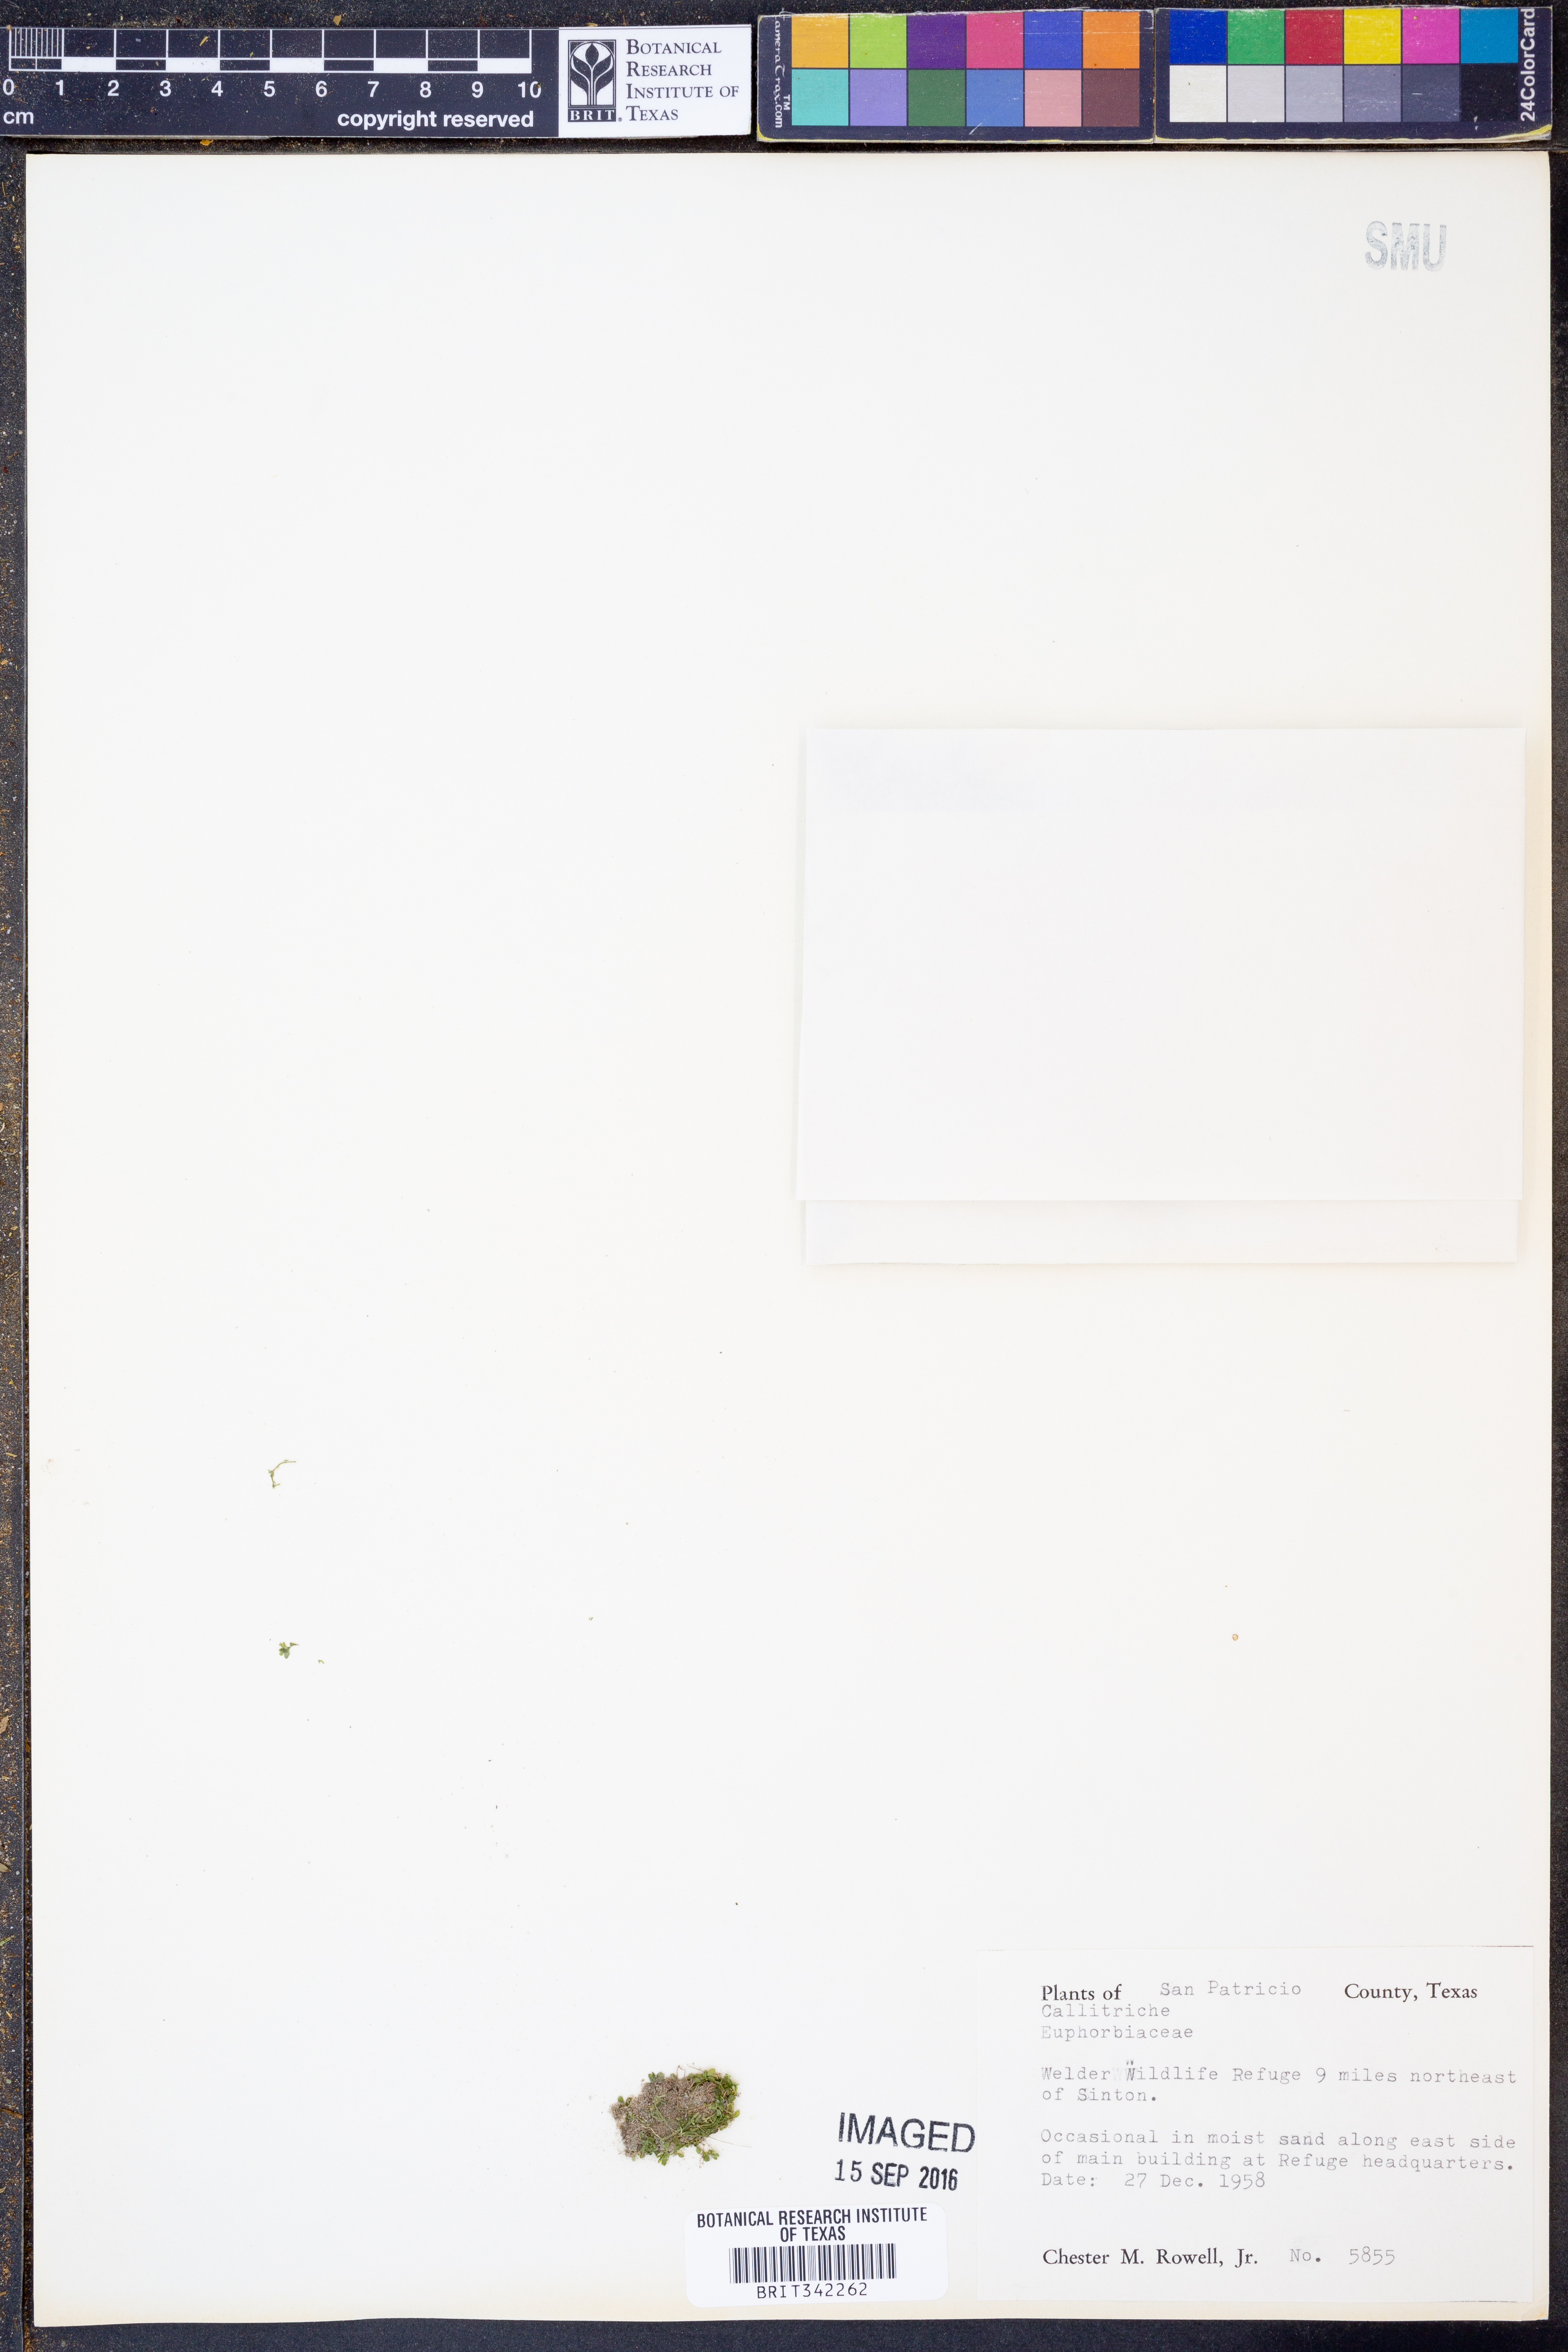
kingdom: Plantae
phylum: Tracheophyta
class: Magnoliopsida
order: Lamiales
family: Plantaginaceae
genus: Callitriche
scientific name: Callitriche
